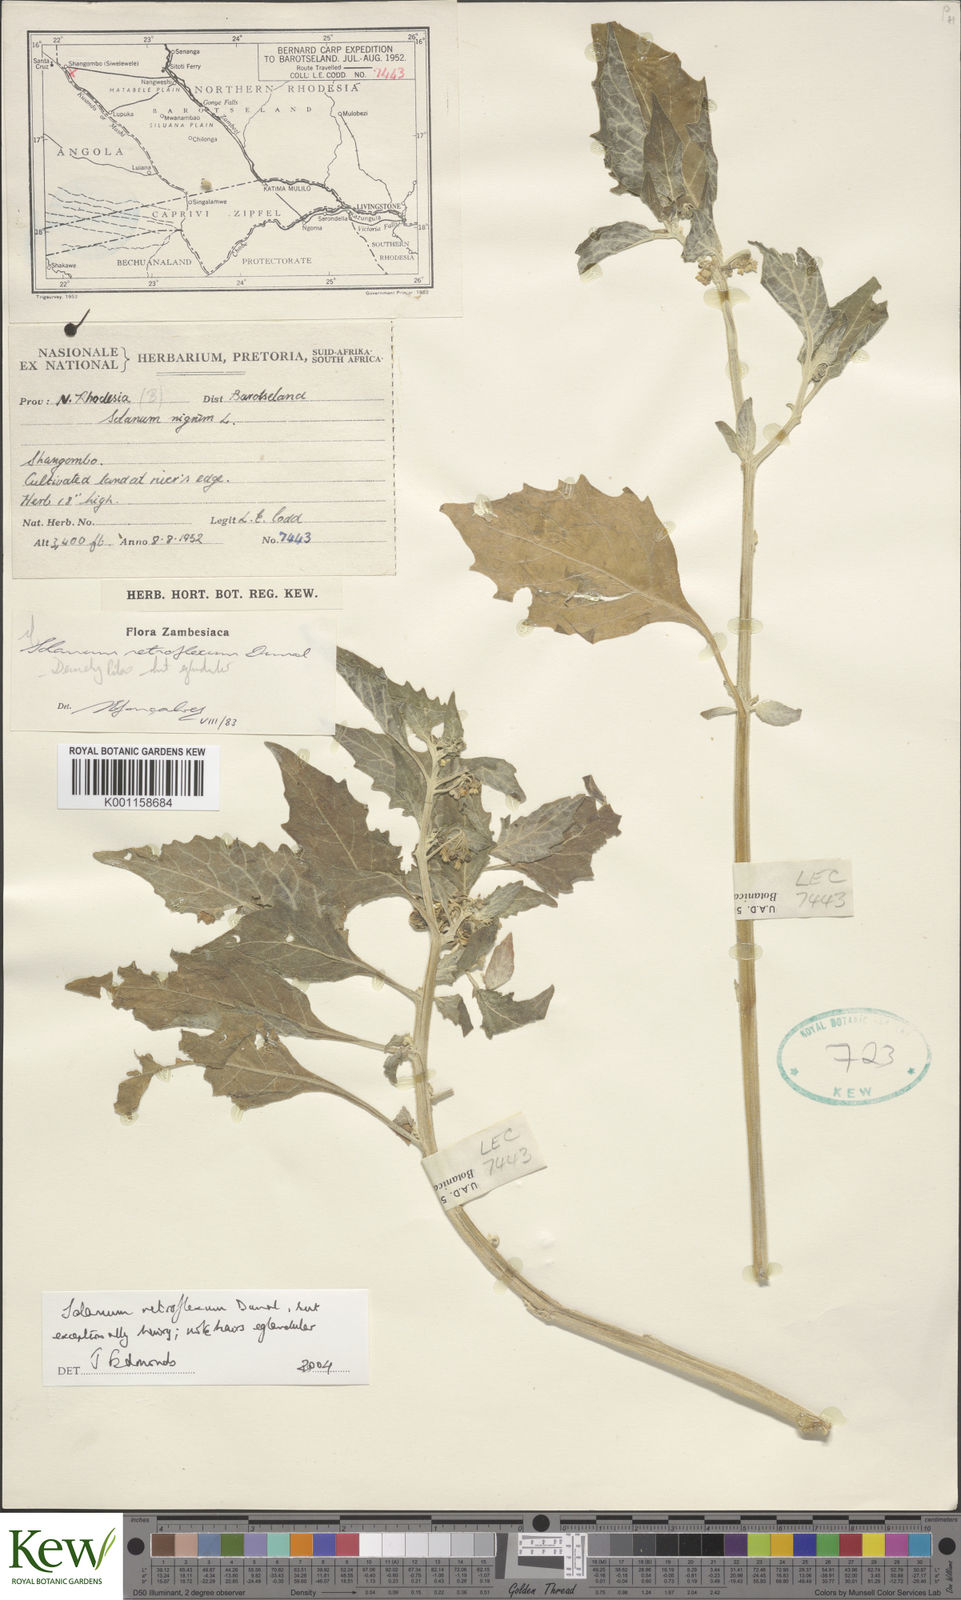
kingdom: Plantae
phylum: Tracheophyta
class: Magnoliopsida
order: Solanales
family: Solanaceae
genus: Solanum
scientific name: Solanum retroflexum
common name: Wonderberry
